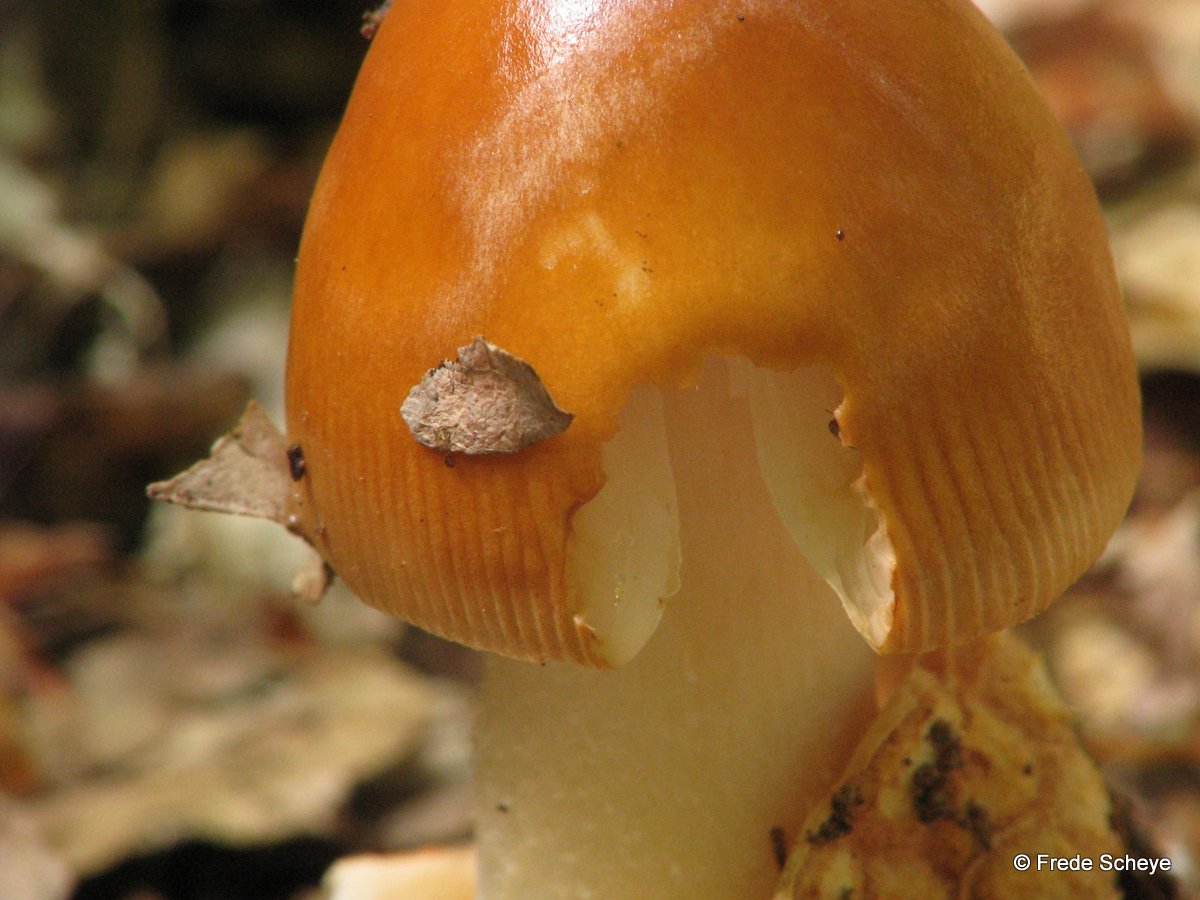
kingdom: Fungi
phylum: Basidiomycota
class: Agaricomycetes
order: Agaricales
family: Amanitaceae
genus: Amanita
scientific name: Amanita fulva
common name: brun kam-fluesvamp
